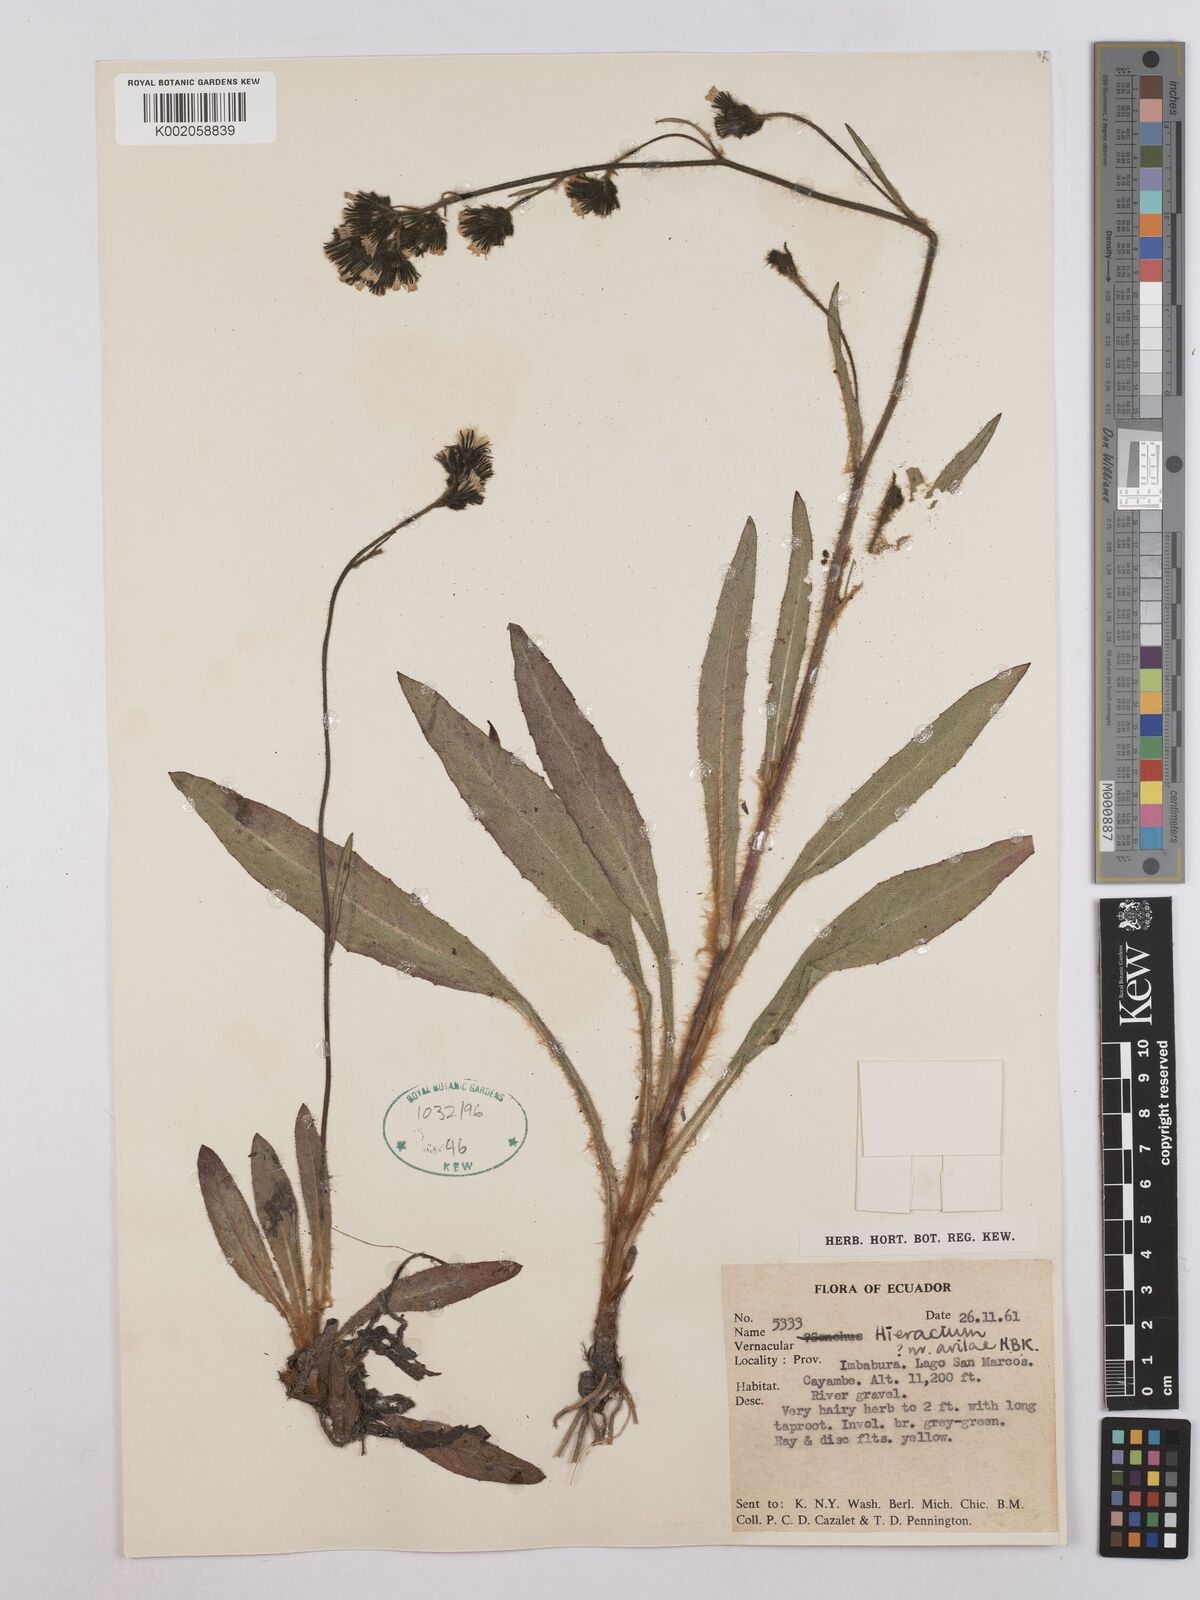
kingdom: Plantae
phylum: Tracheophyta
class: Magnoliopsida
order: Asterales
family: Asteraceae
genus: Hieracium
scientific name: Hieracium avilae
